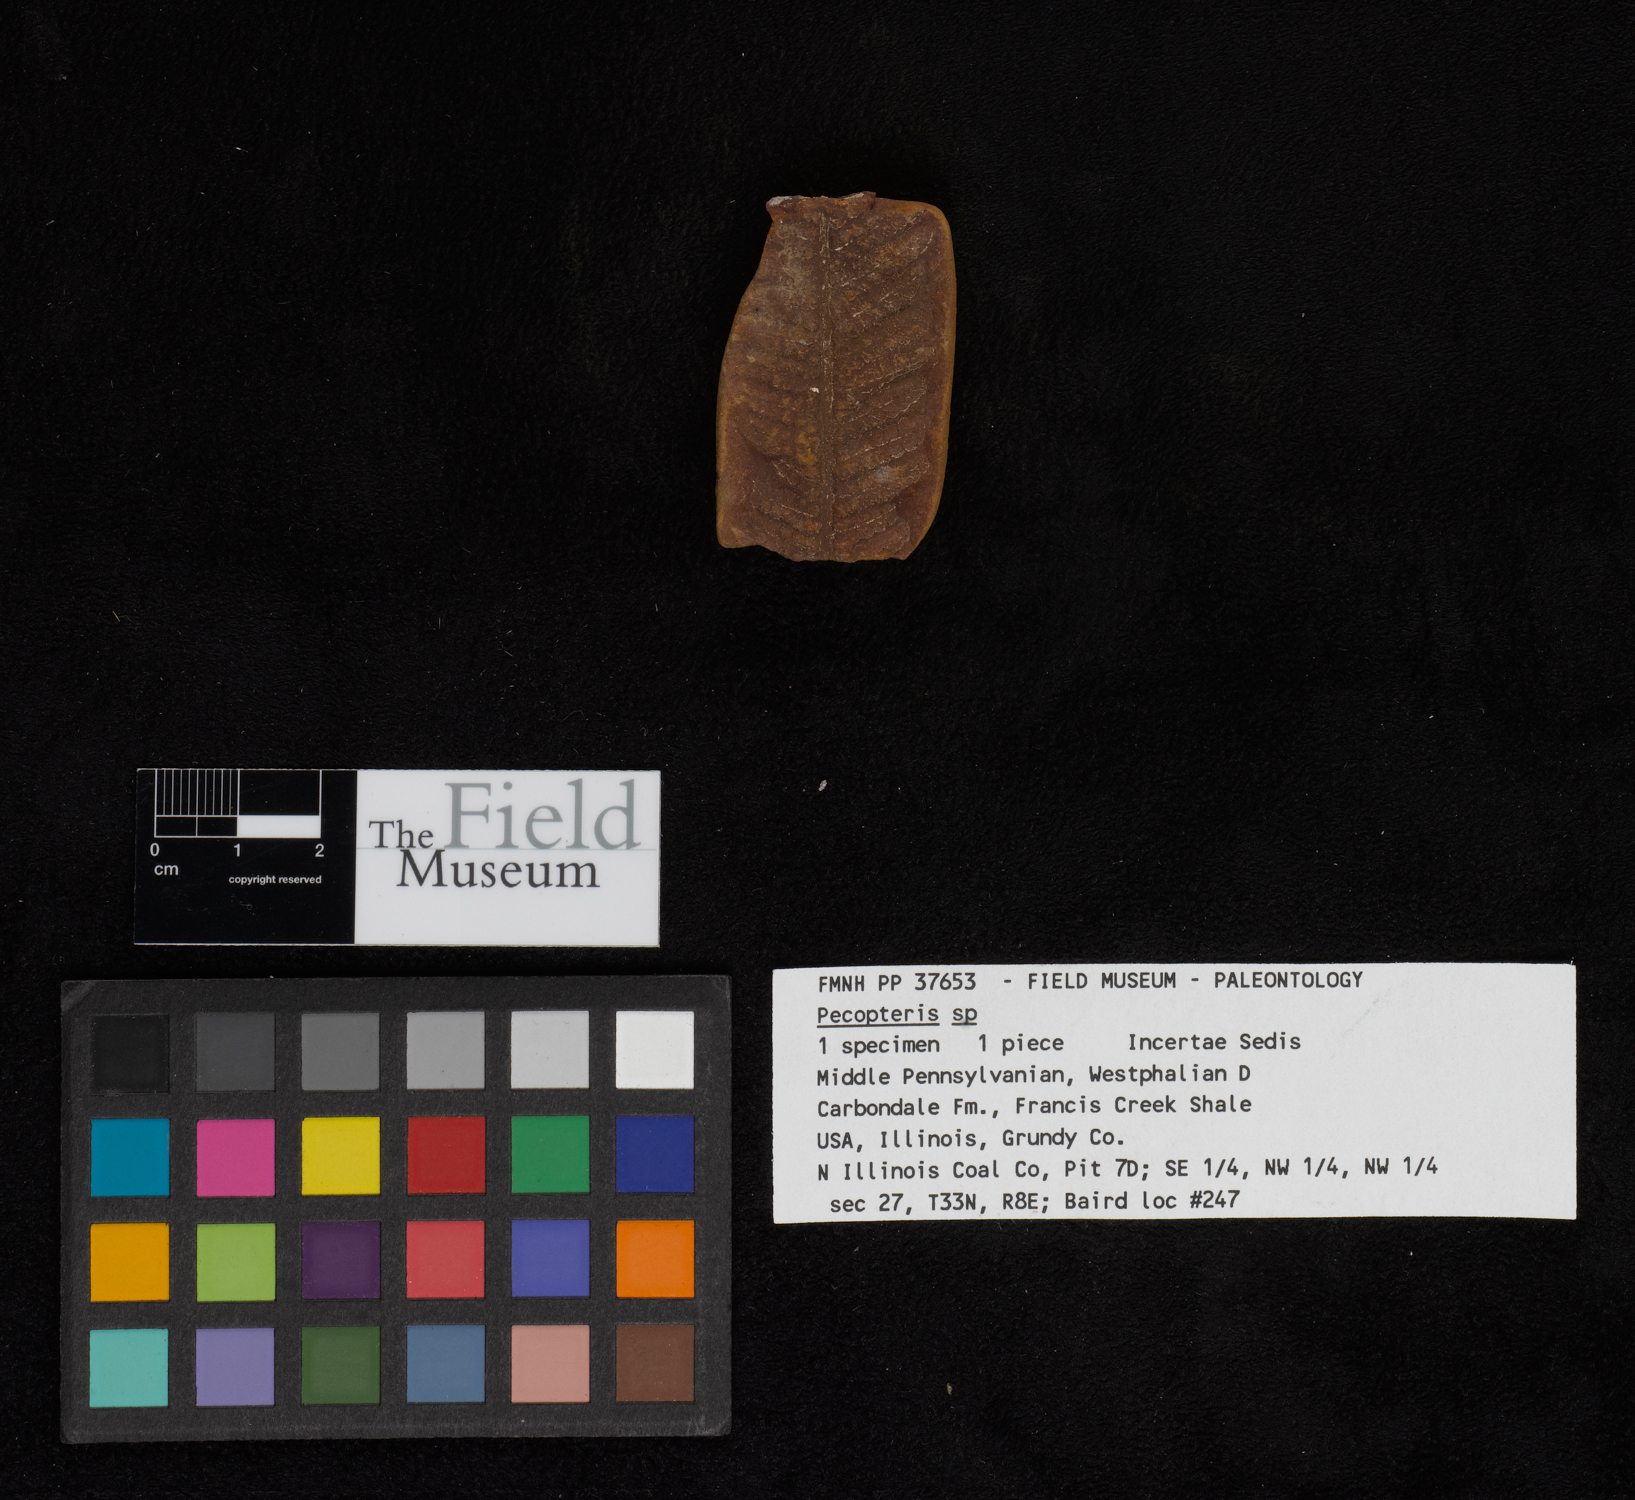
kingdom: Plantae
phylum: Tracheophyta
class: Polypodiopsida
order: Marattiales
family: Asterothecaceae
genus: Pecopteris
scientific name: Pecopteris
